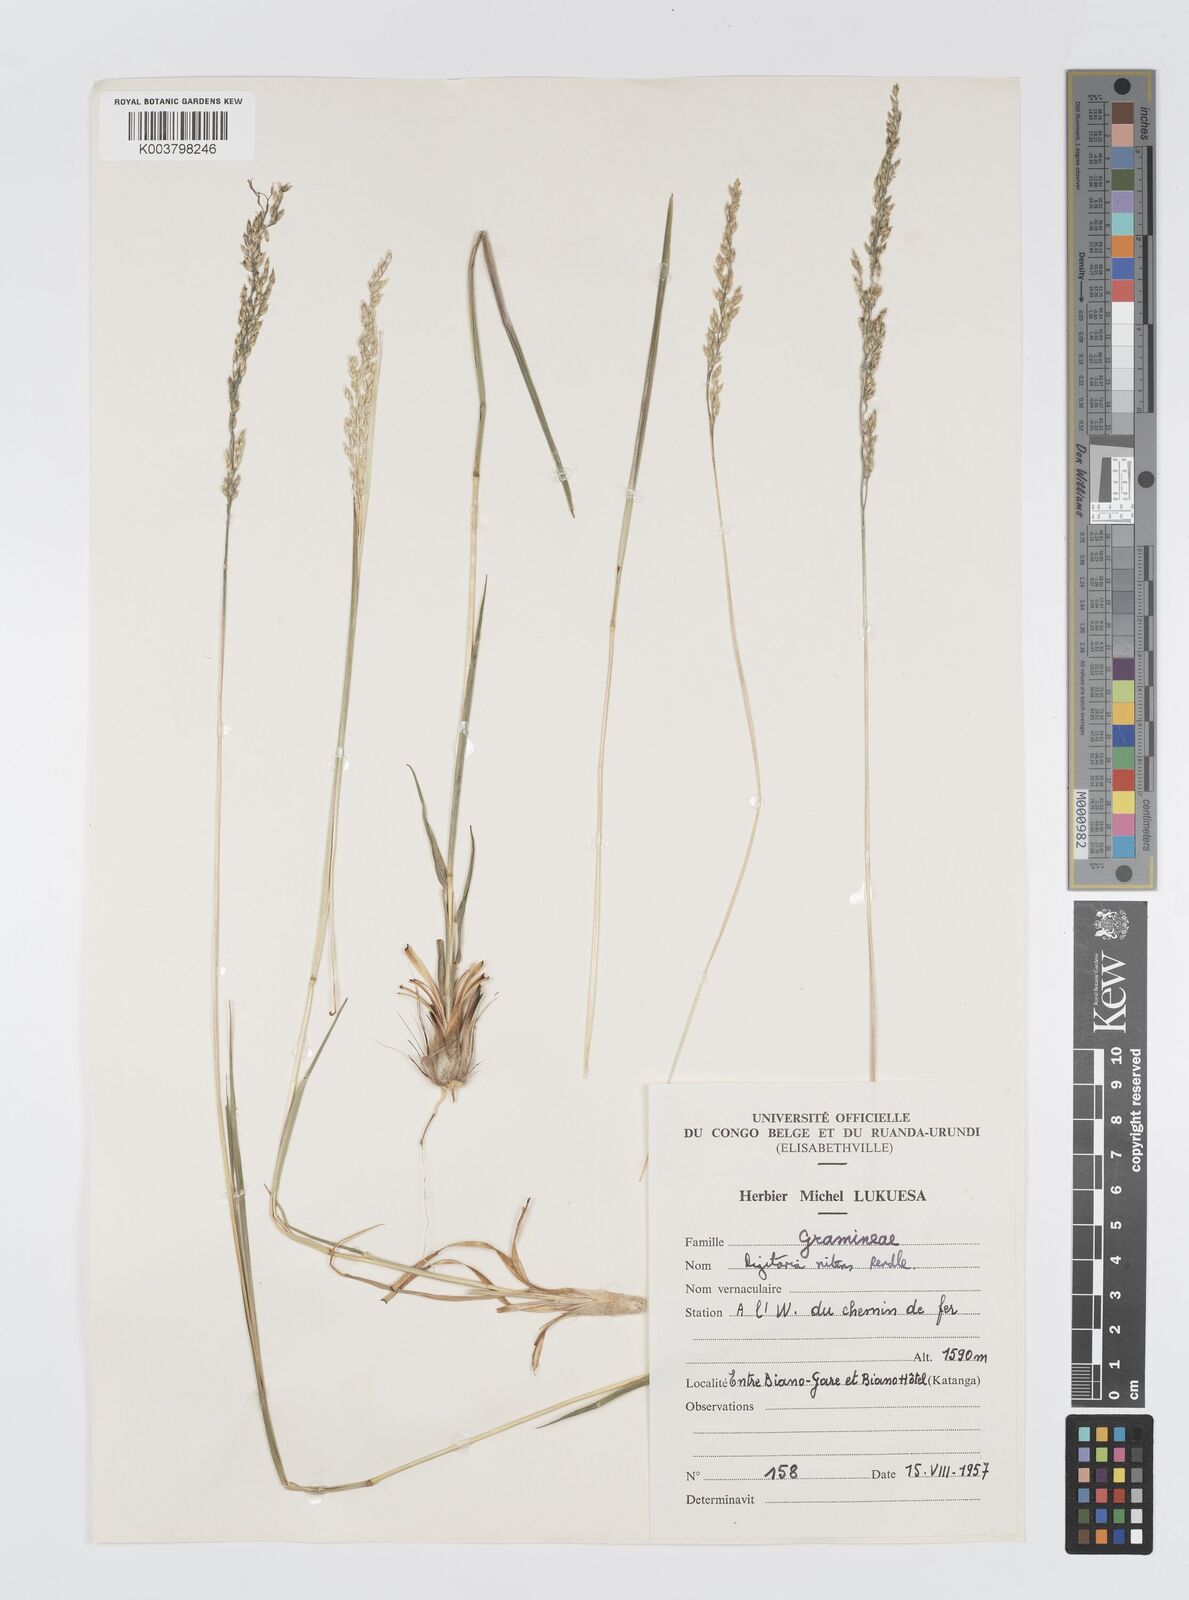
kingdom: Plantae
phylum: Tracheophyta
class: Liliopsida
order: Poales
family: Poaceae
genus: Digitaria
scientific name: Digitaria flaccida
